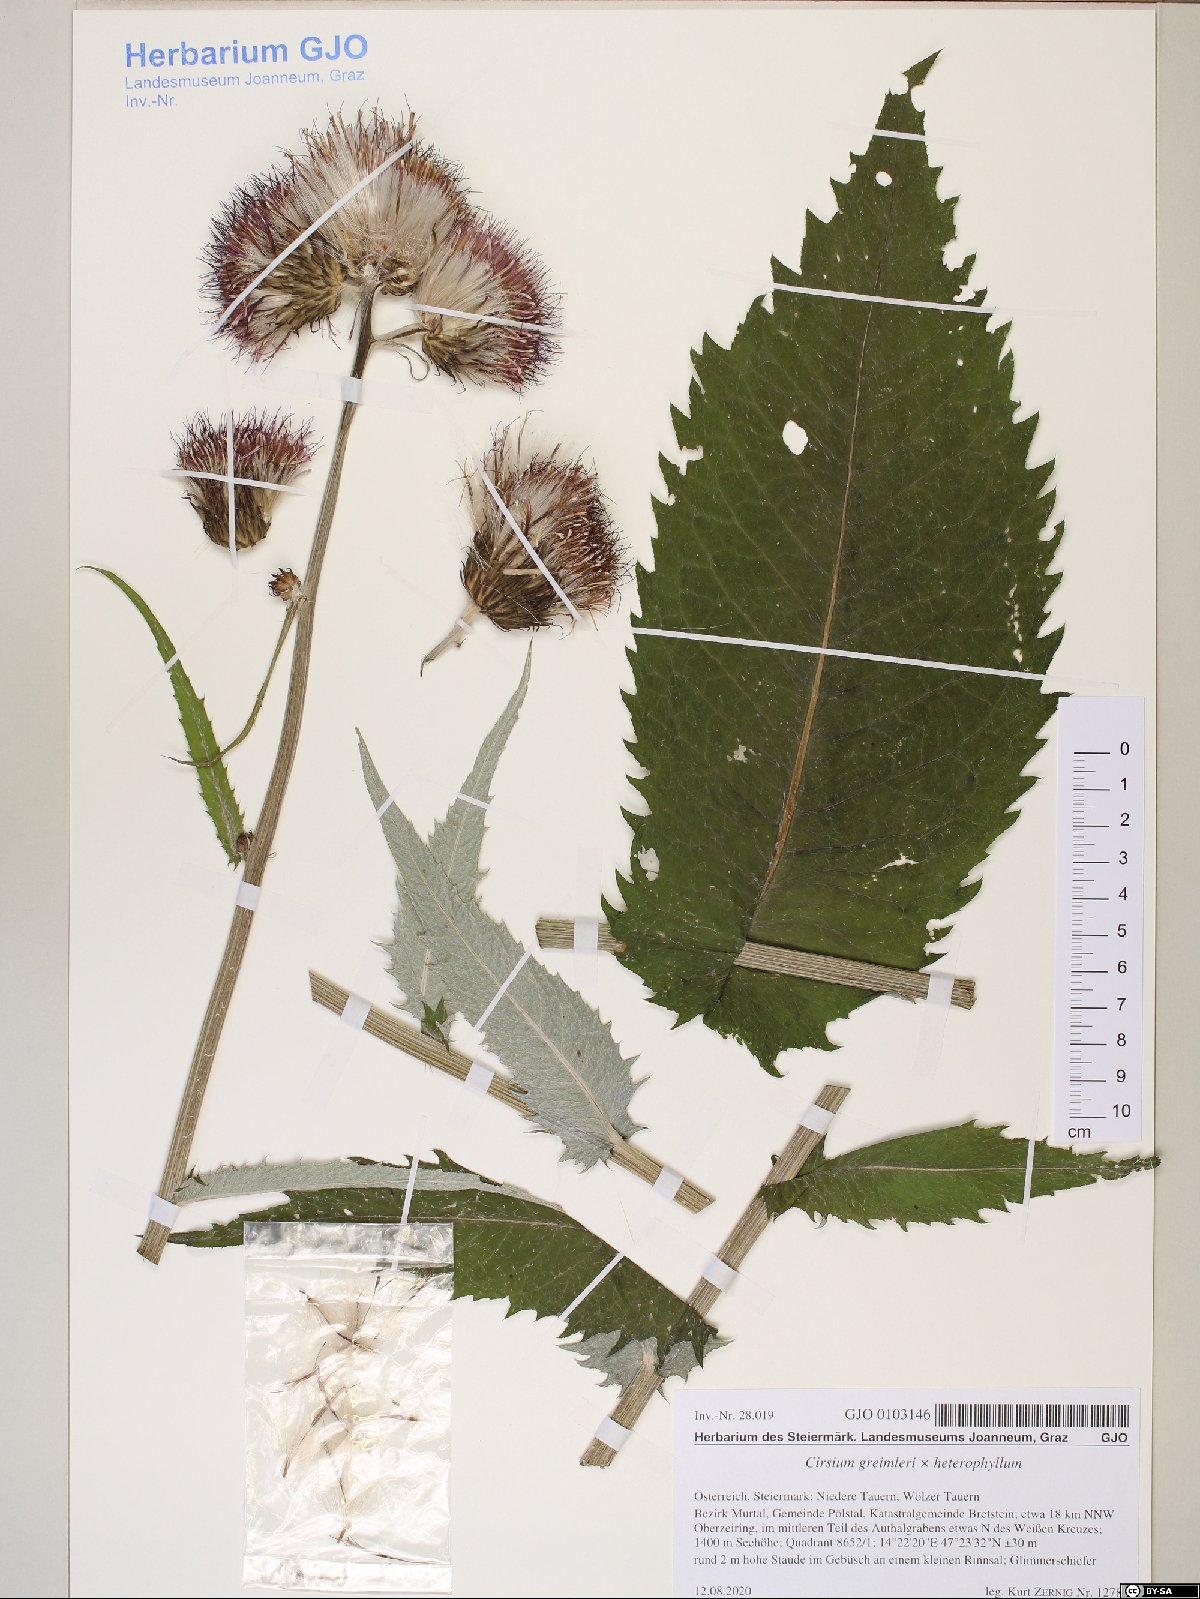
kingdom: Plantae
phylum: Tracheophyta
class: Magnoliopsida
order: Asterales
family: Asteraceae
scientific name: Asteraceae
